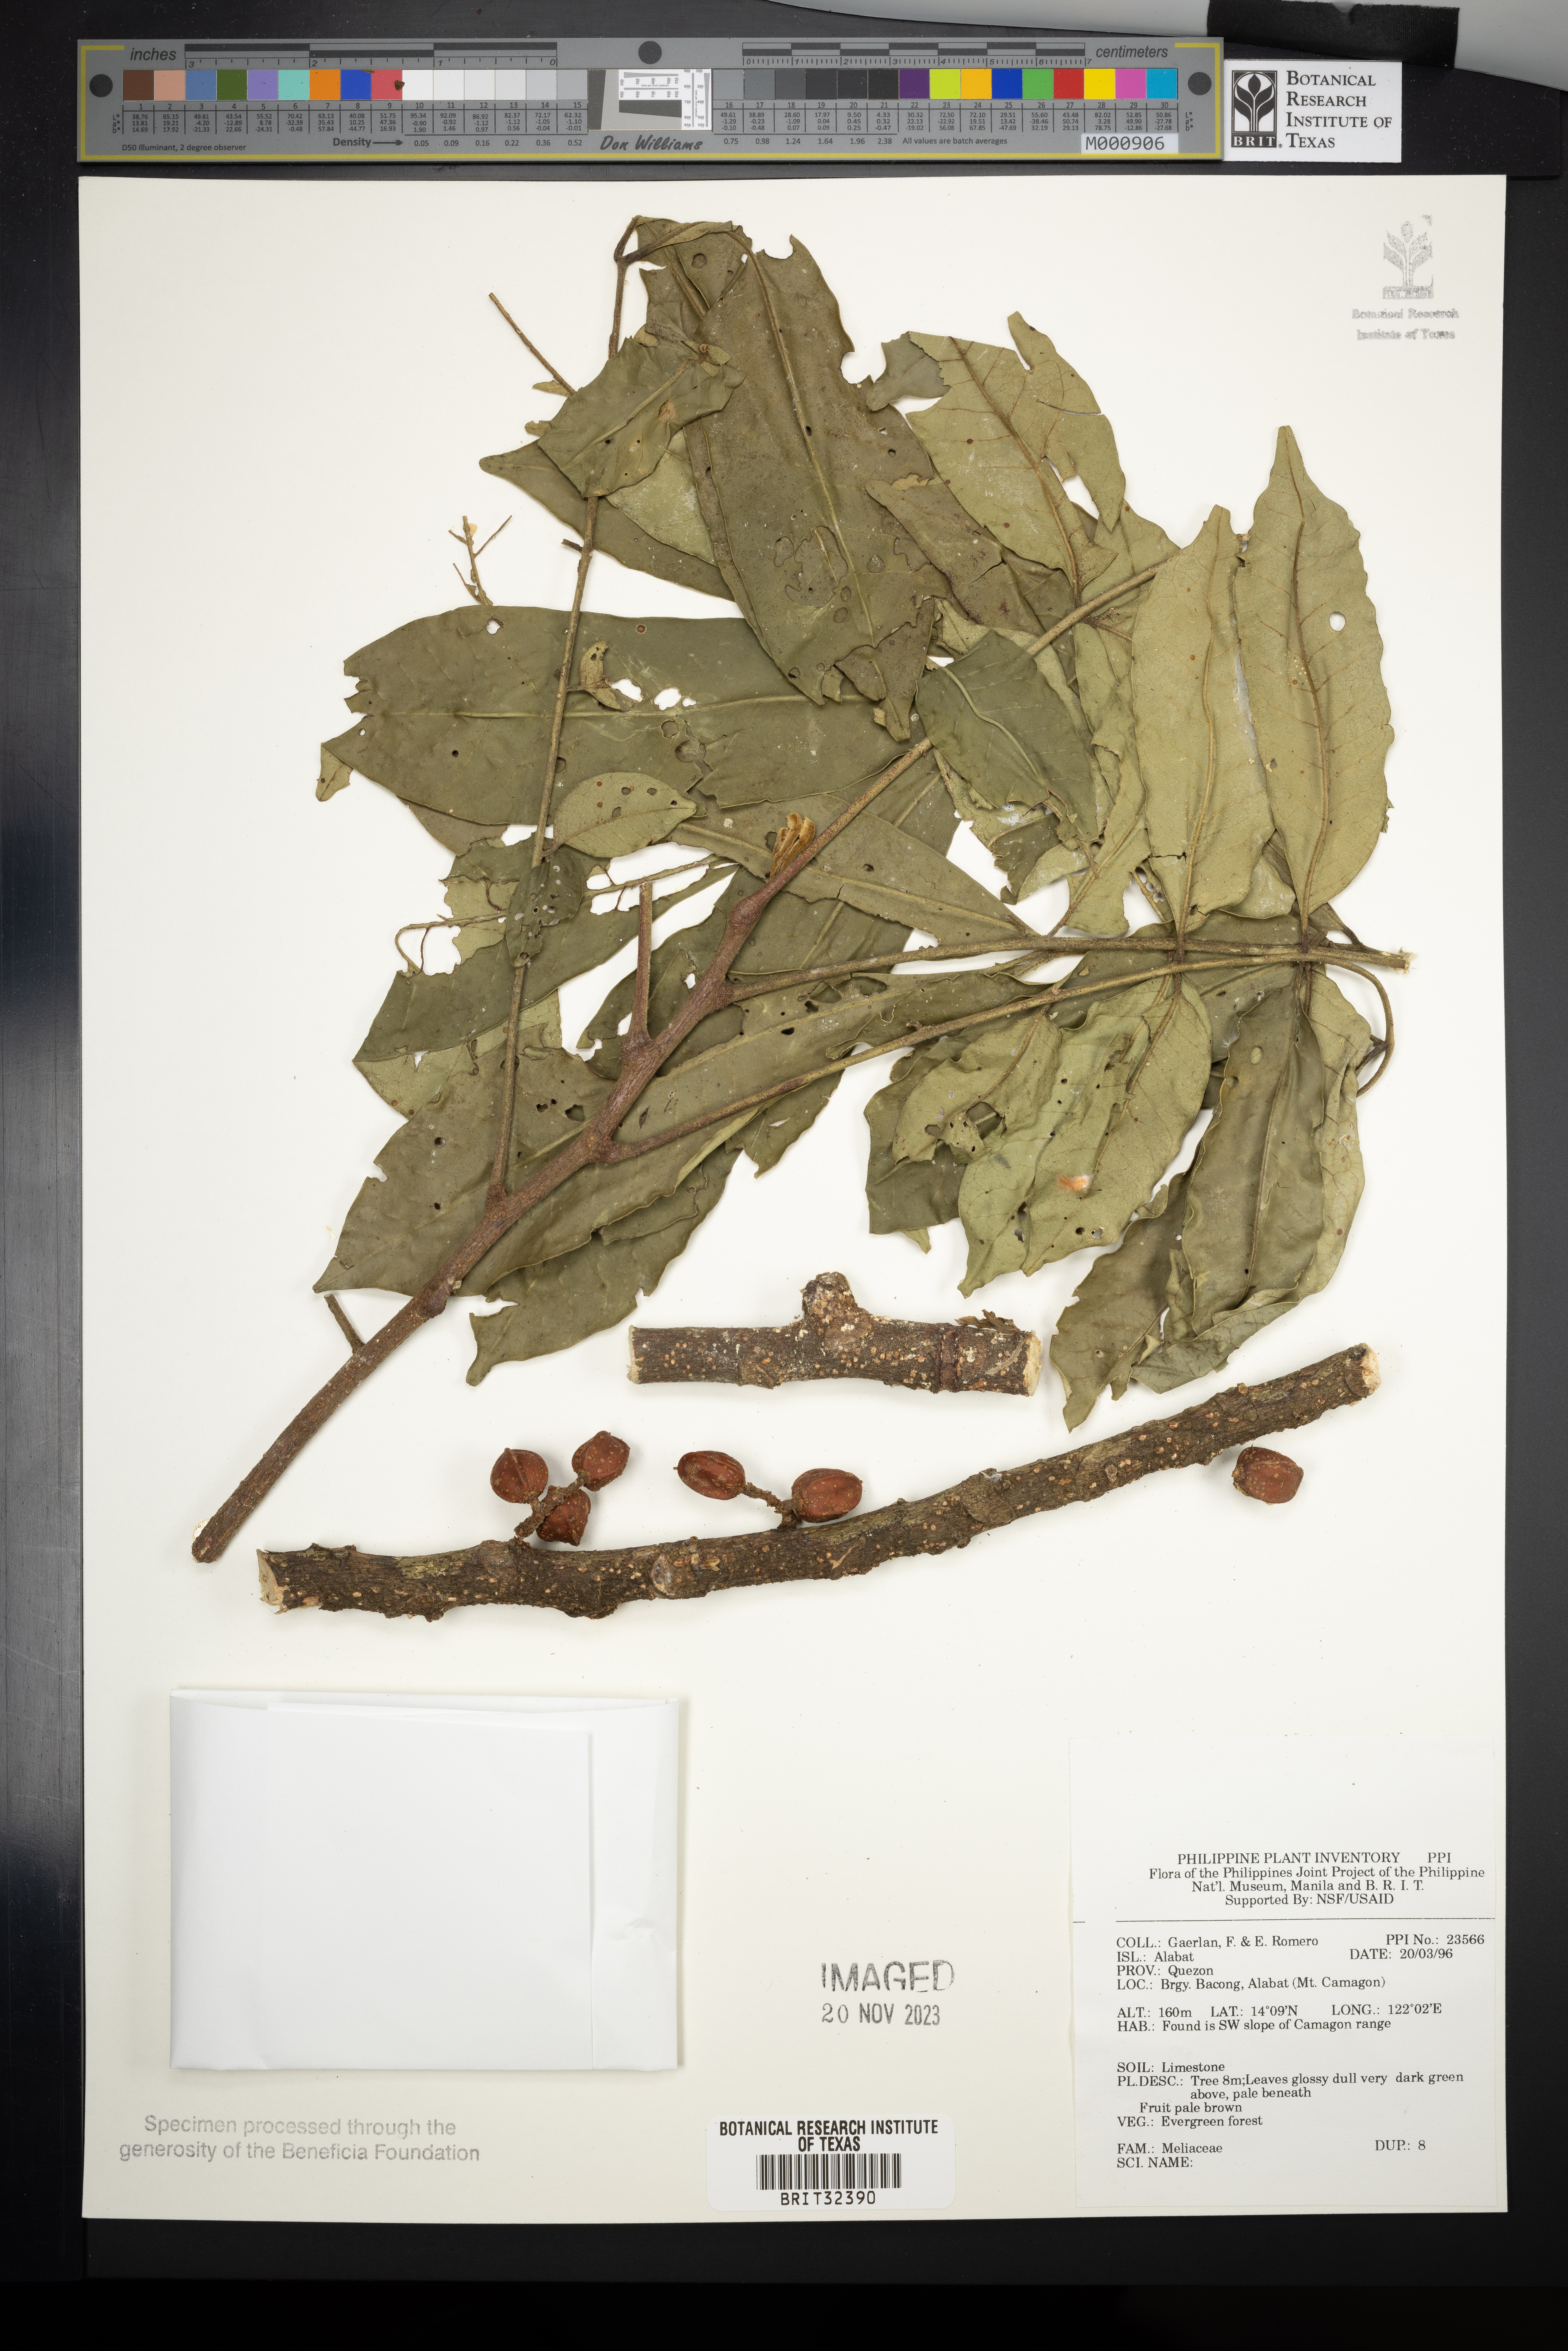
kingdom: Plantae
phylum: Tracheophyta
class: Magnoliopsida
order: Sapindales
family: Meliaceae
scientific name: Meliaceae
